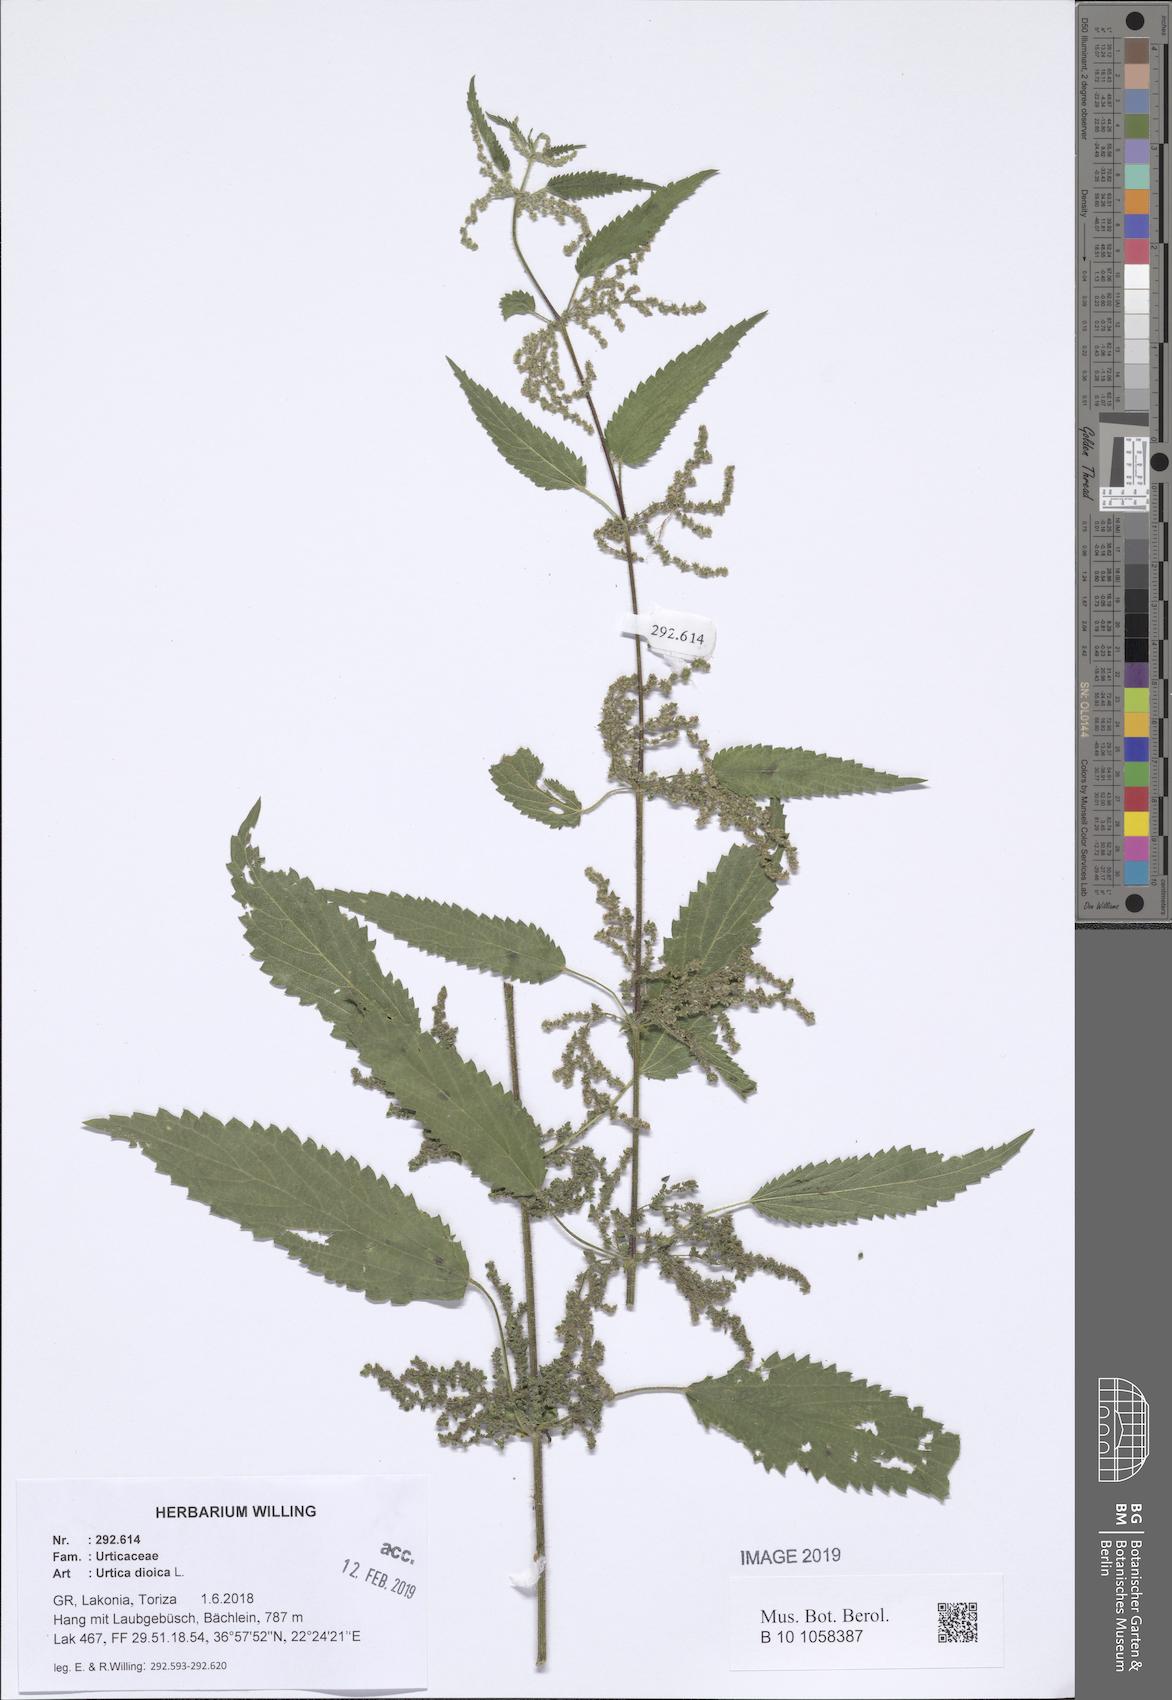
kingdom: Plantae
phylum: Tracheophyta
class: Magnoliopsida
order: Rosales
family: Urticaceae
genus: Urtica
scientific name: Urtica dioica
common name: Common nettle
